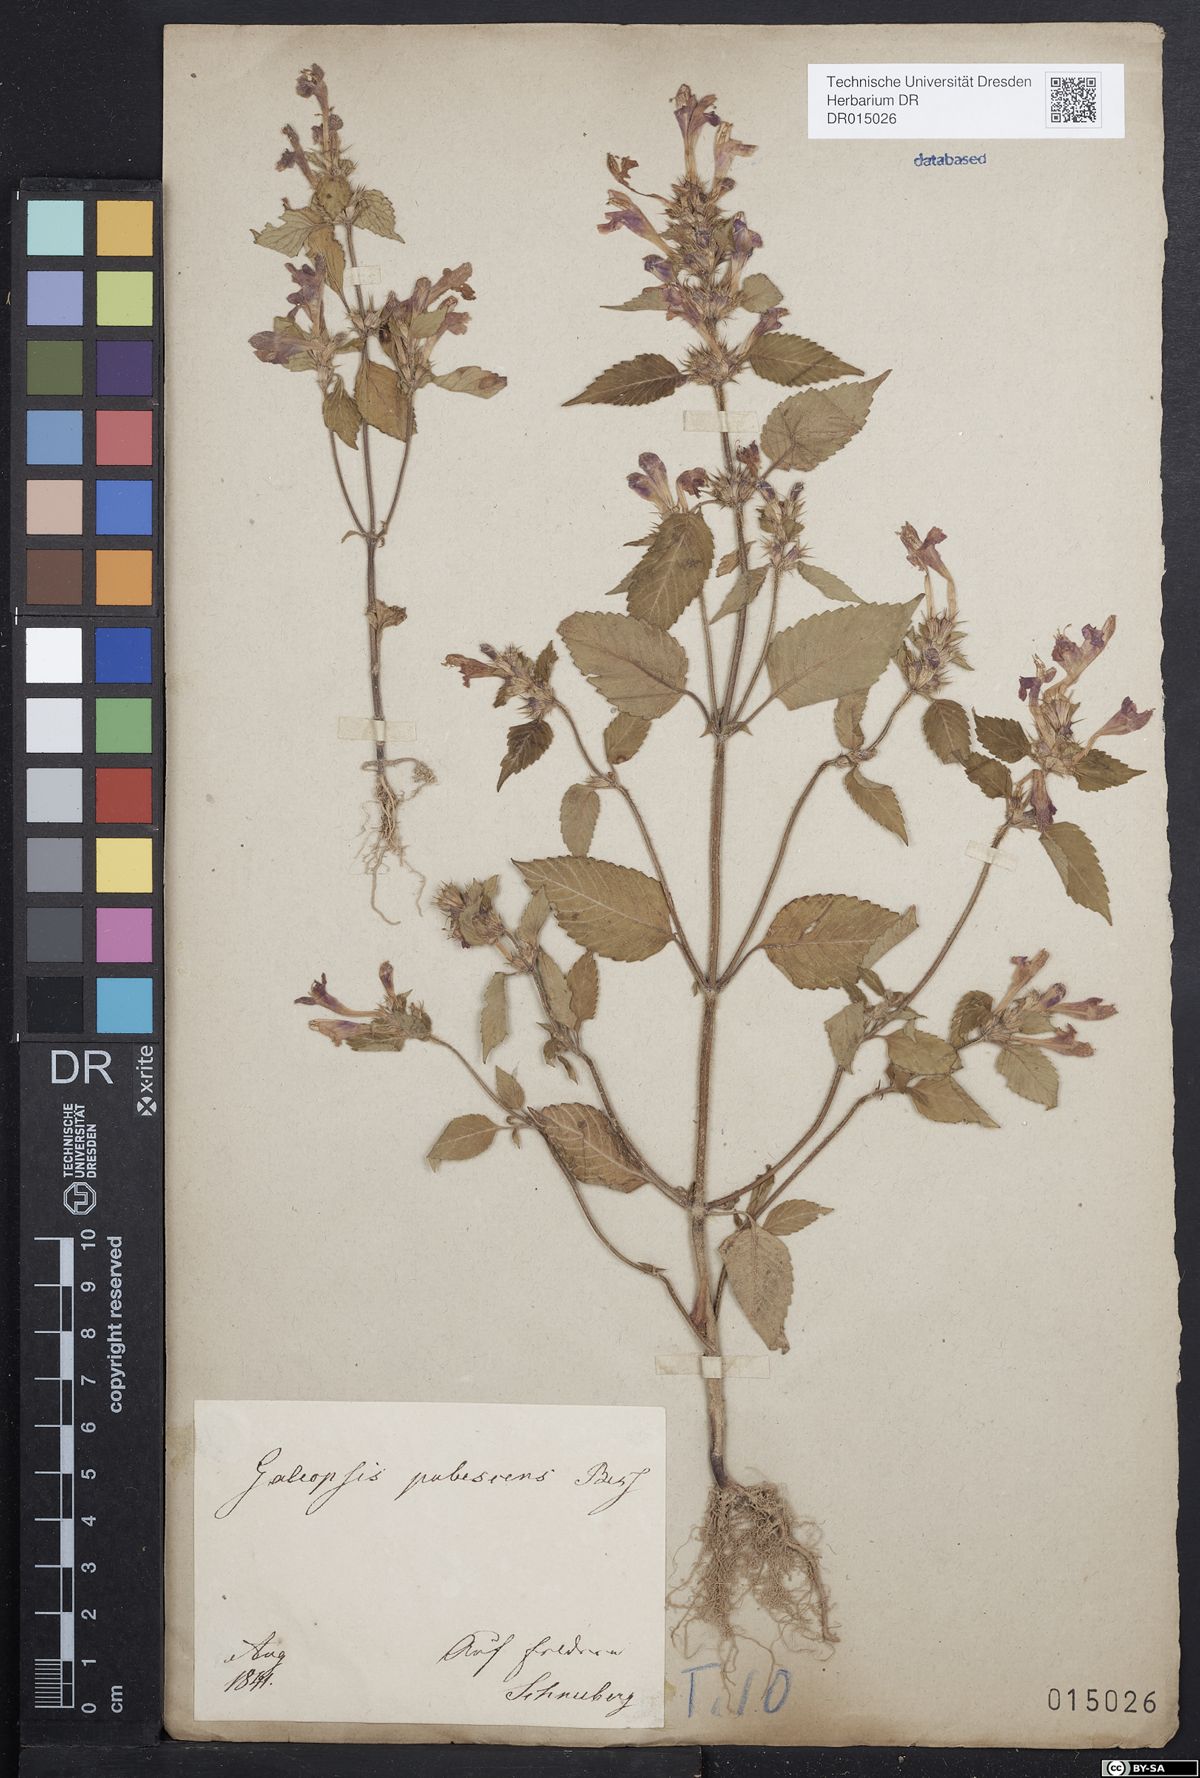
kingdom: Plantae
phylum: Tracheophyta
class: Magnoliopsida
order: Lamiales
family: Lamiaceae
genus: Galeopsis
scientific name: Galeopsis pubescens
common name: Downy hemp-nettle
